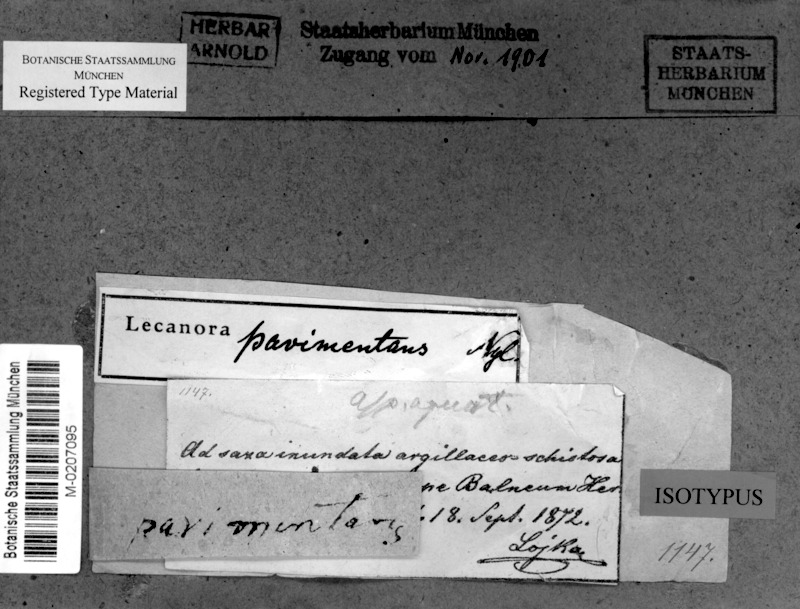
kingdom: Fungi
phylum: Ascomycota
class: Lecanoromycetes
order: Pertusariales
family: Megasporaceae
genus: Aspicilia
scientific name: Aspicilia
